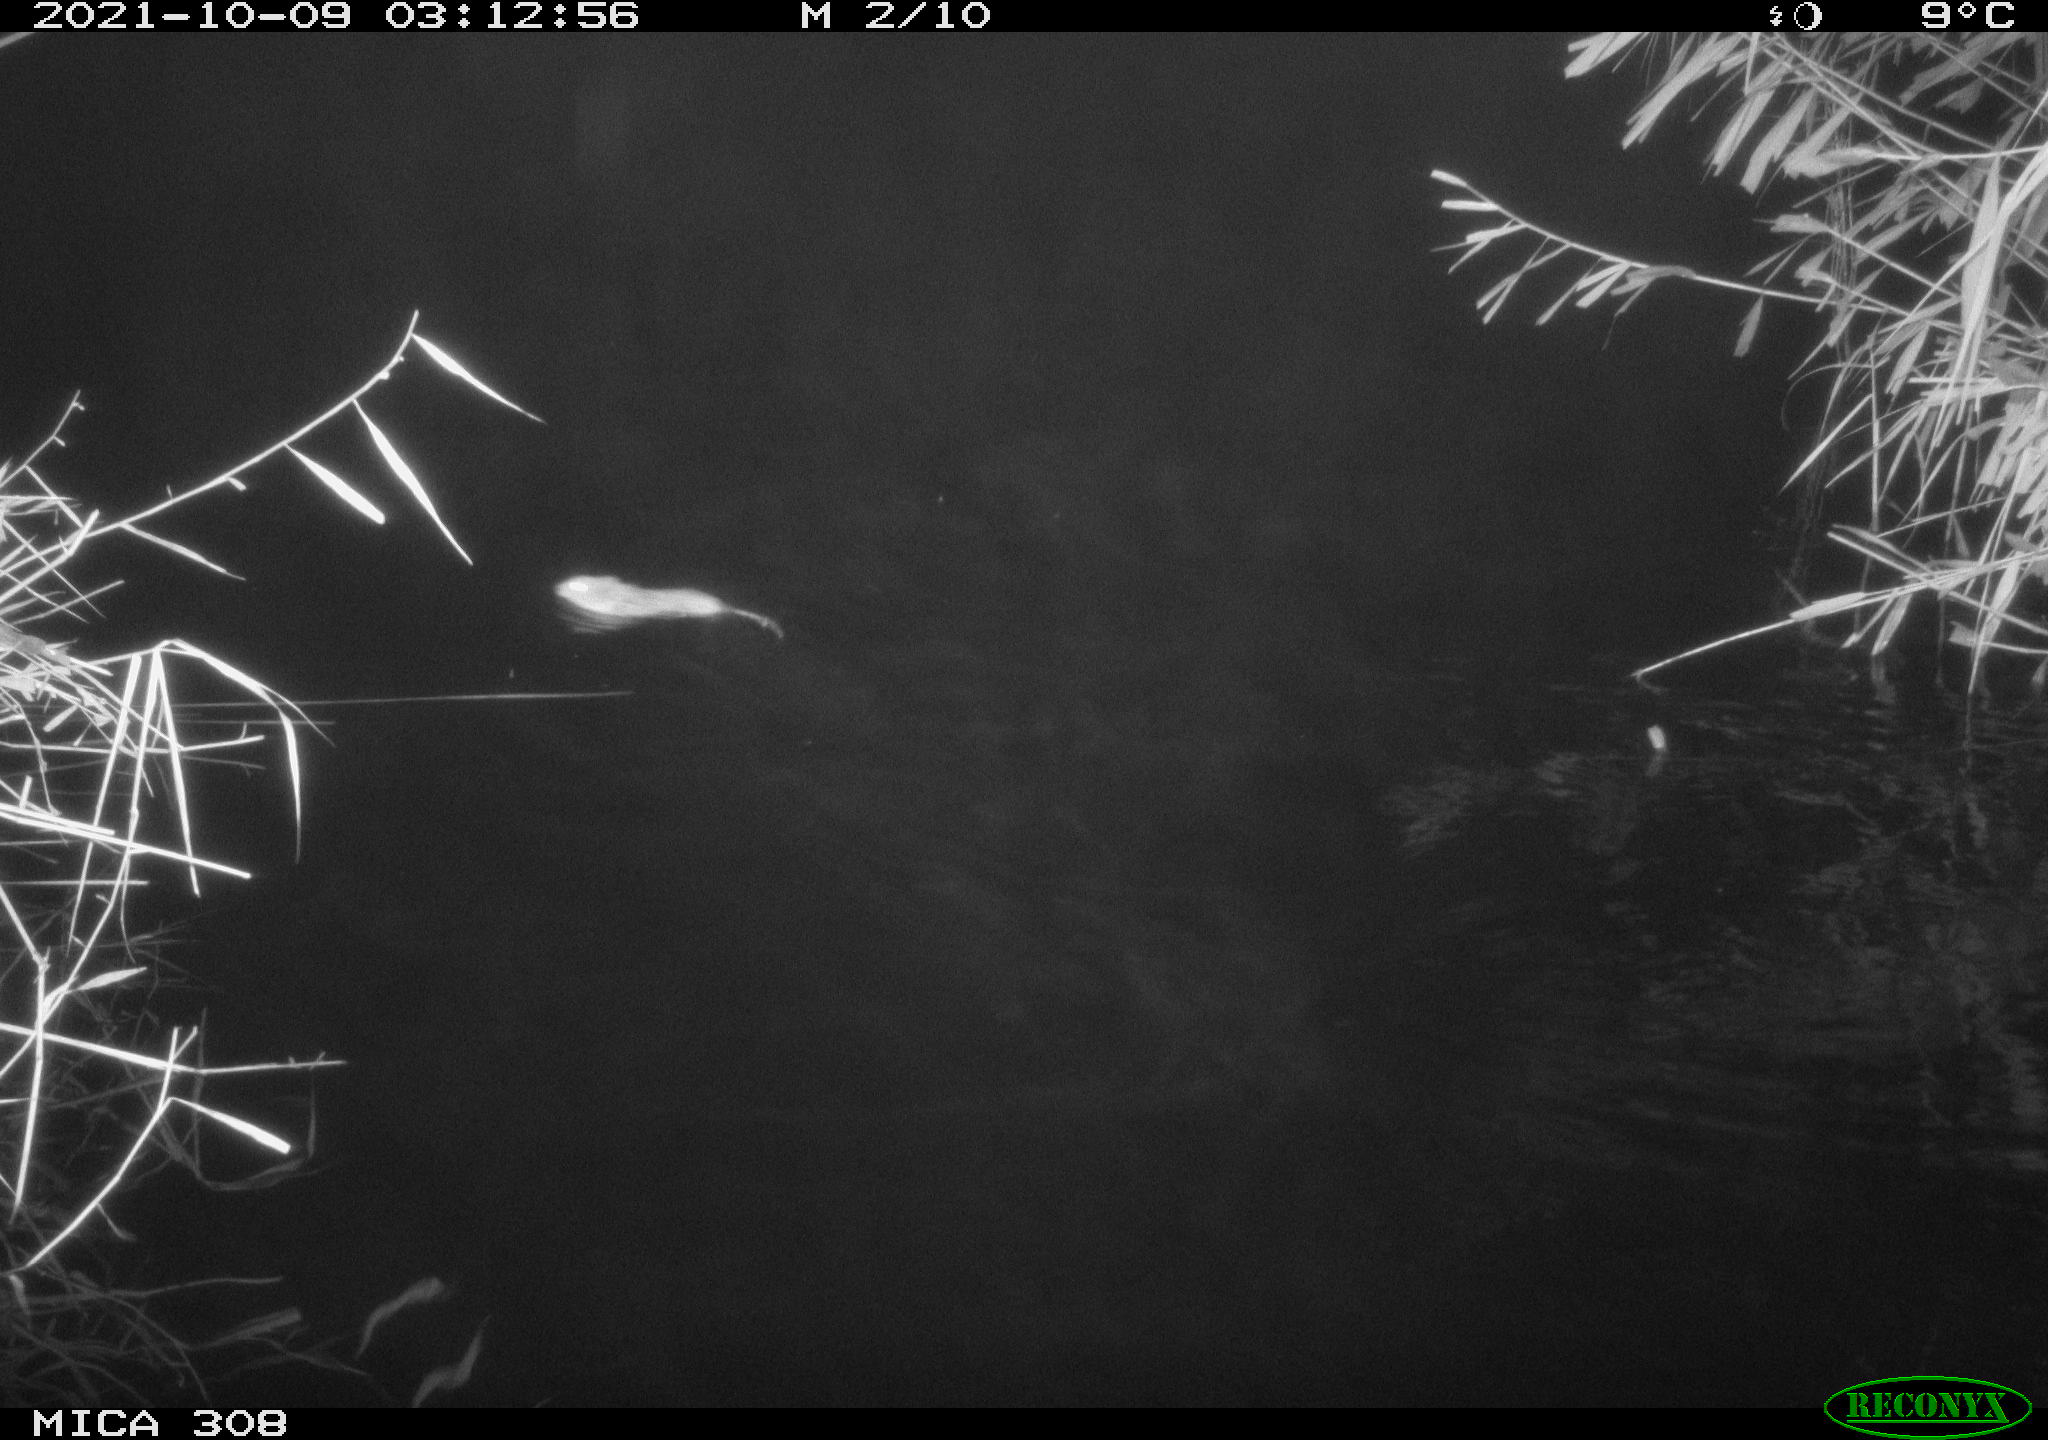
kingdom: Animalia
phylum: Chordata
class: Mammalia
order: Rodentia
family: Cricetidae
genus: Ondatra
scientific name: Ondatra zibethicus
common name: Muskrat
